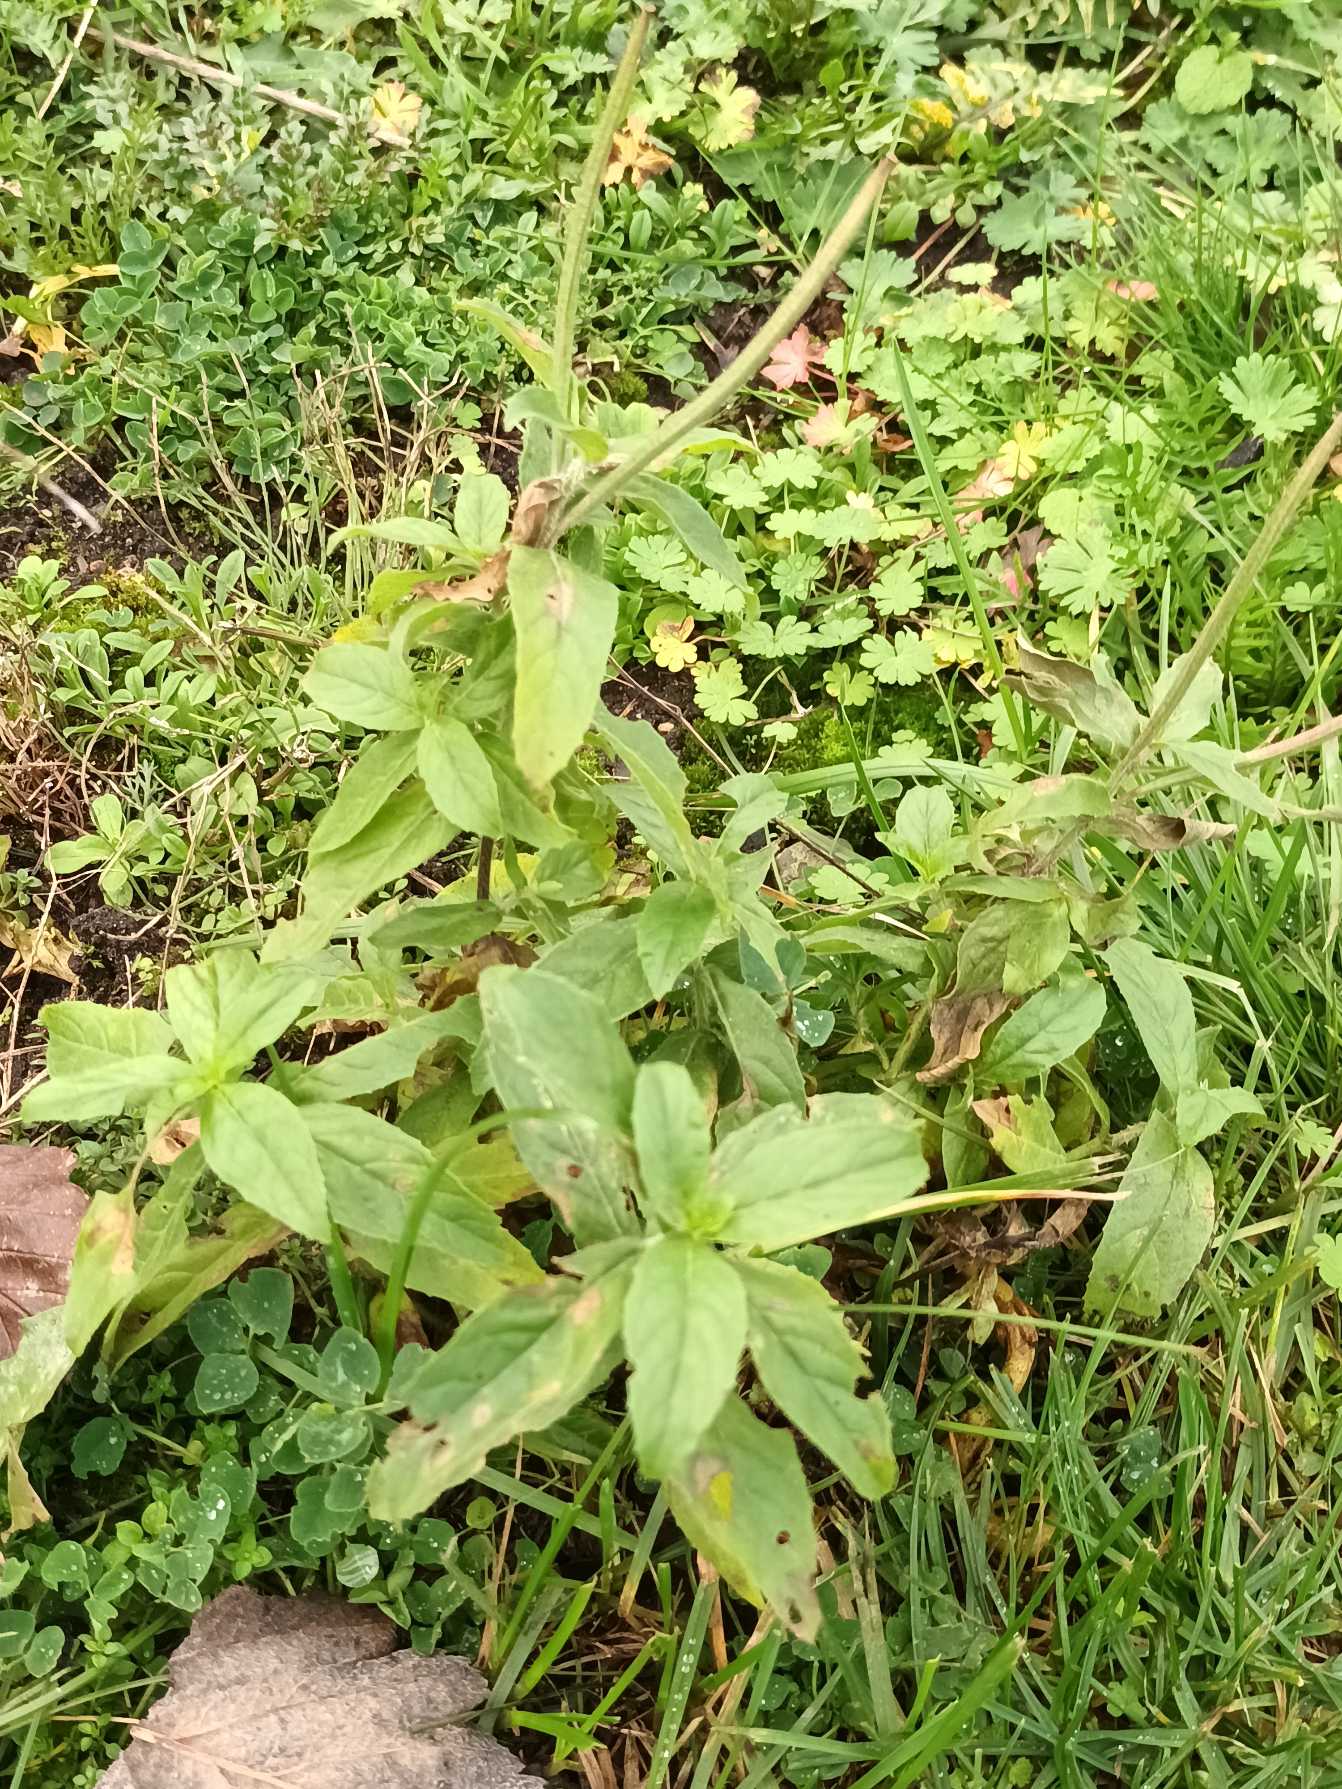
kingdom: Plantae
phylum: Tracheophyta
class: Magnoliopsida
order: Myrtales
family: Onagraceae
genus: Epilobium
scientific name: Epilobium hirsutum
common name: Lådden dueurt
